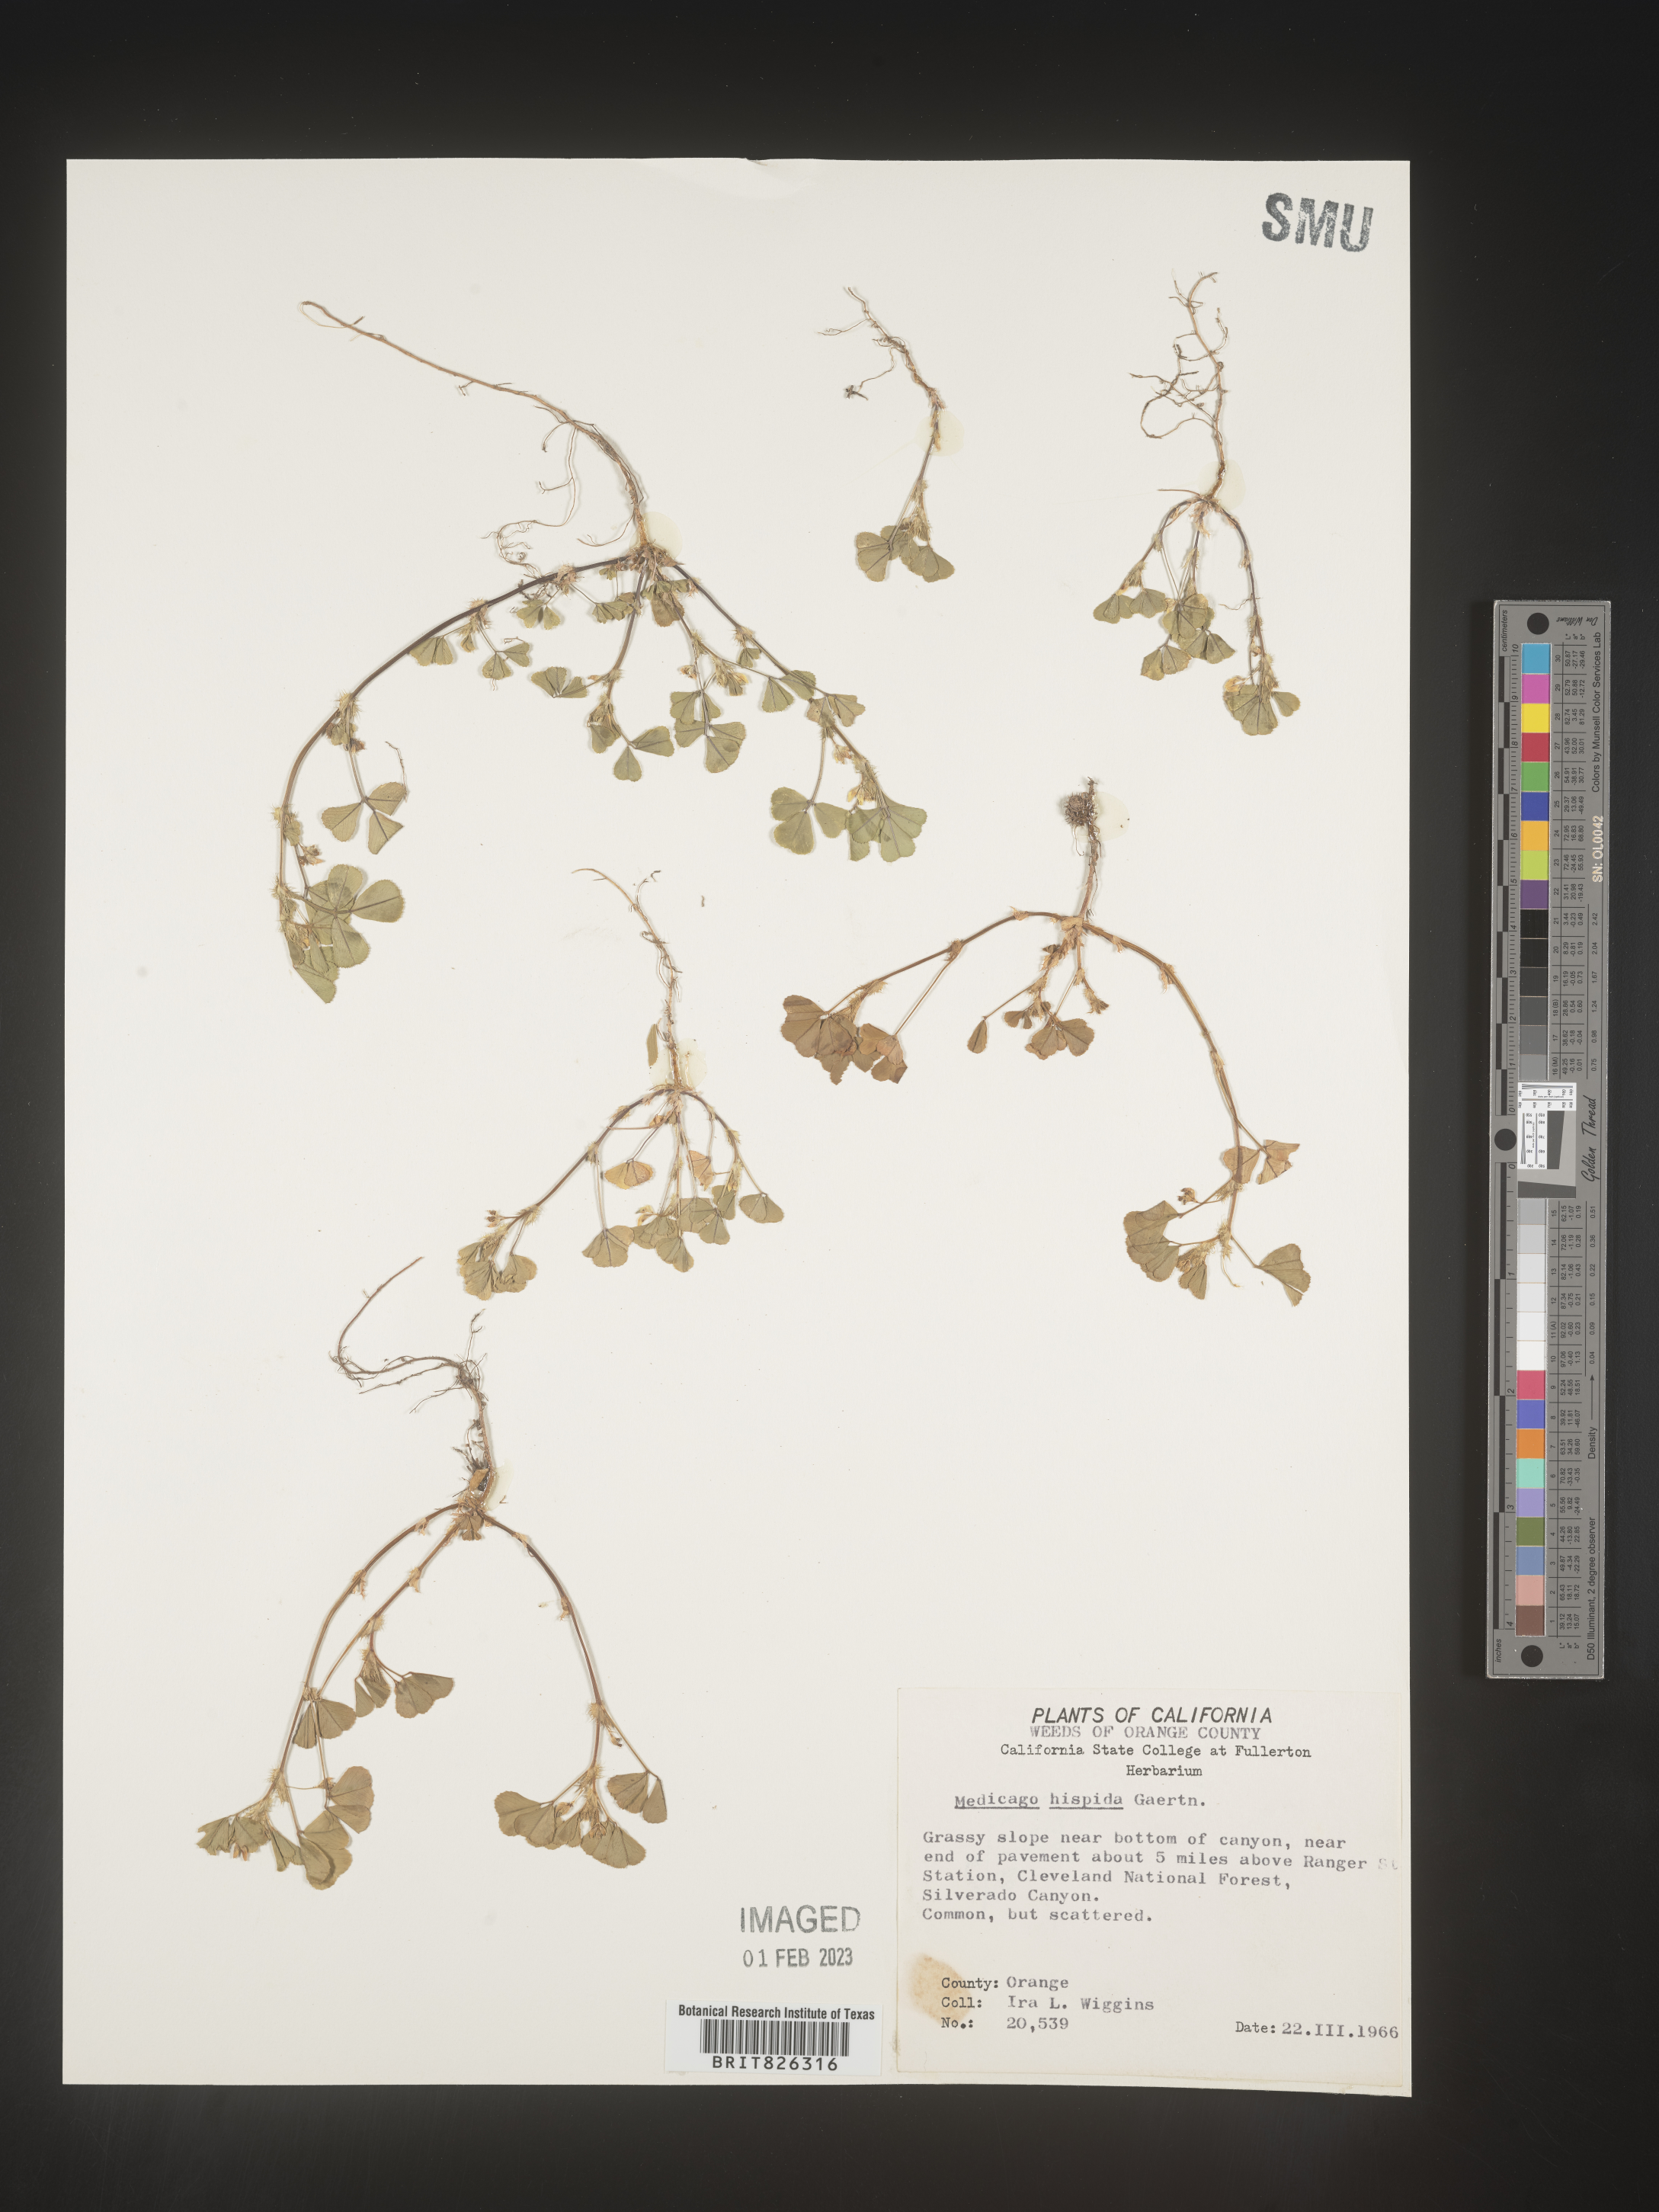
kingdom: Plantae
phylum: Tracheophyta
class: Magnoliopsida
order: Fabales
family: Fabaceae
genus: Medicago
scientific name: Medicago polymorpha
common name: Burclover
